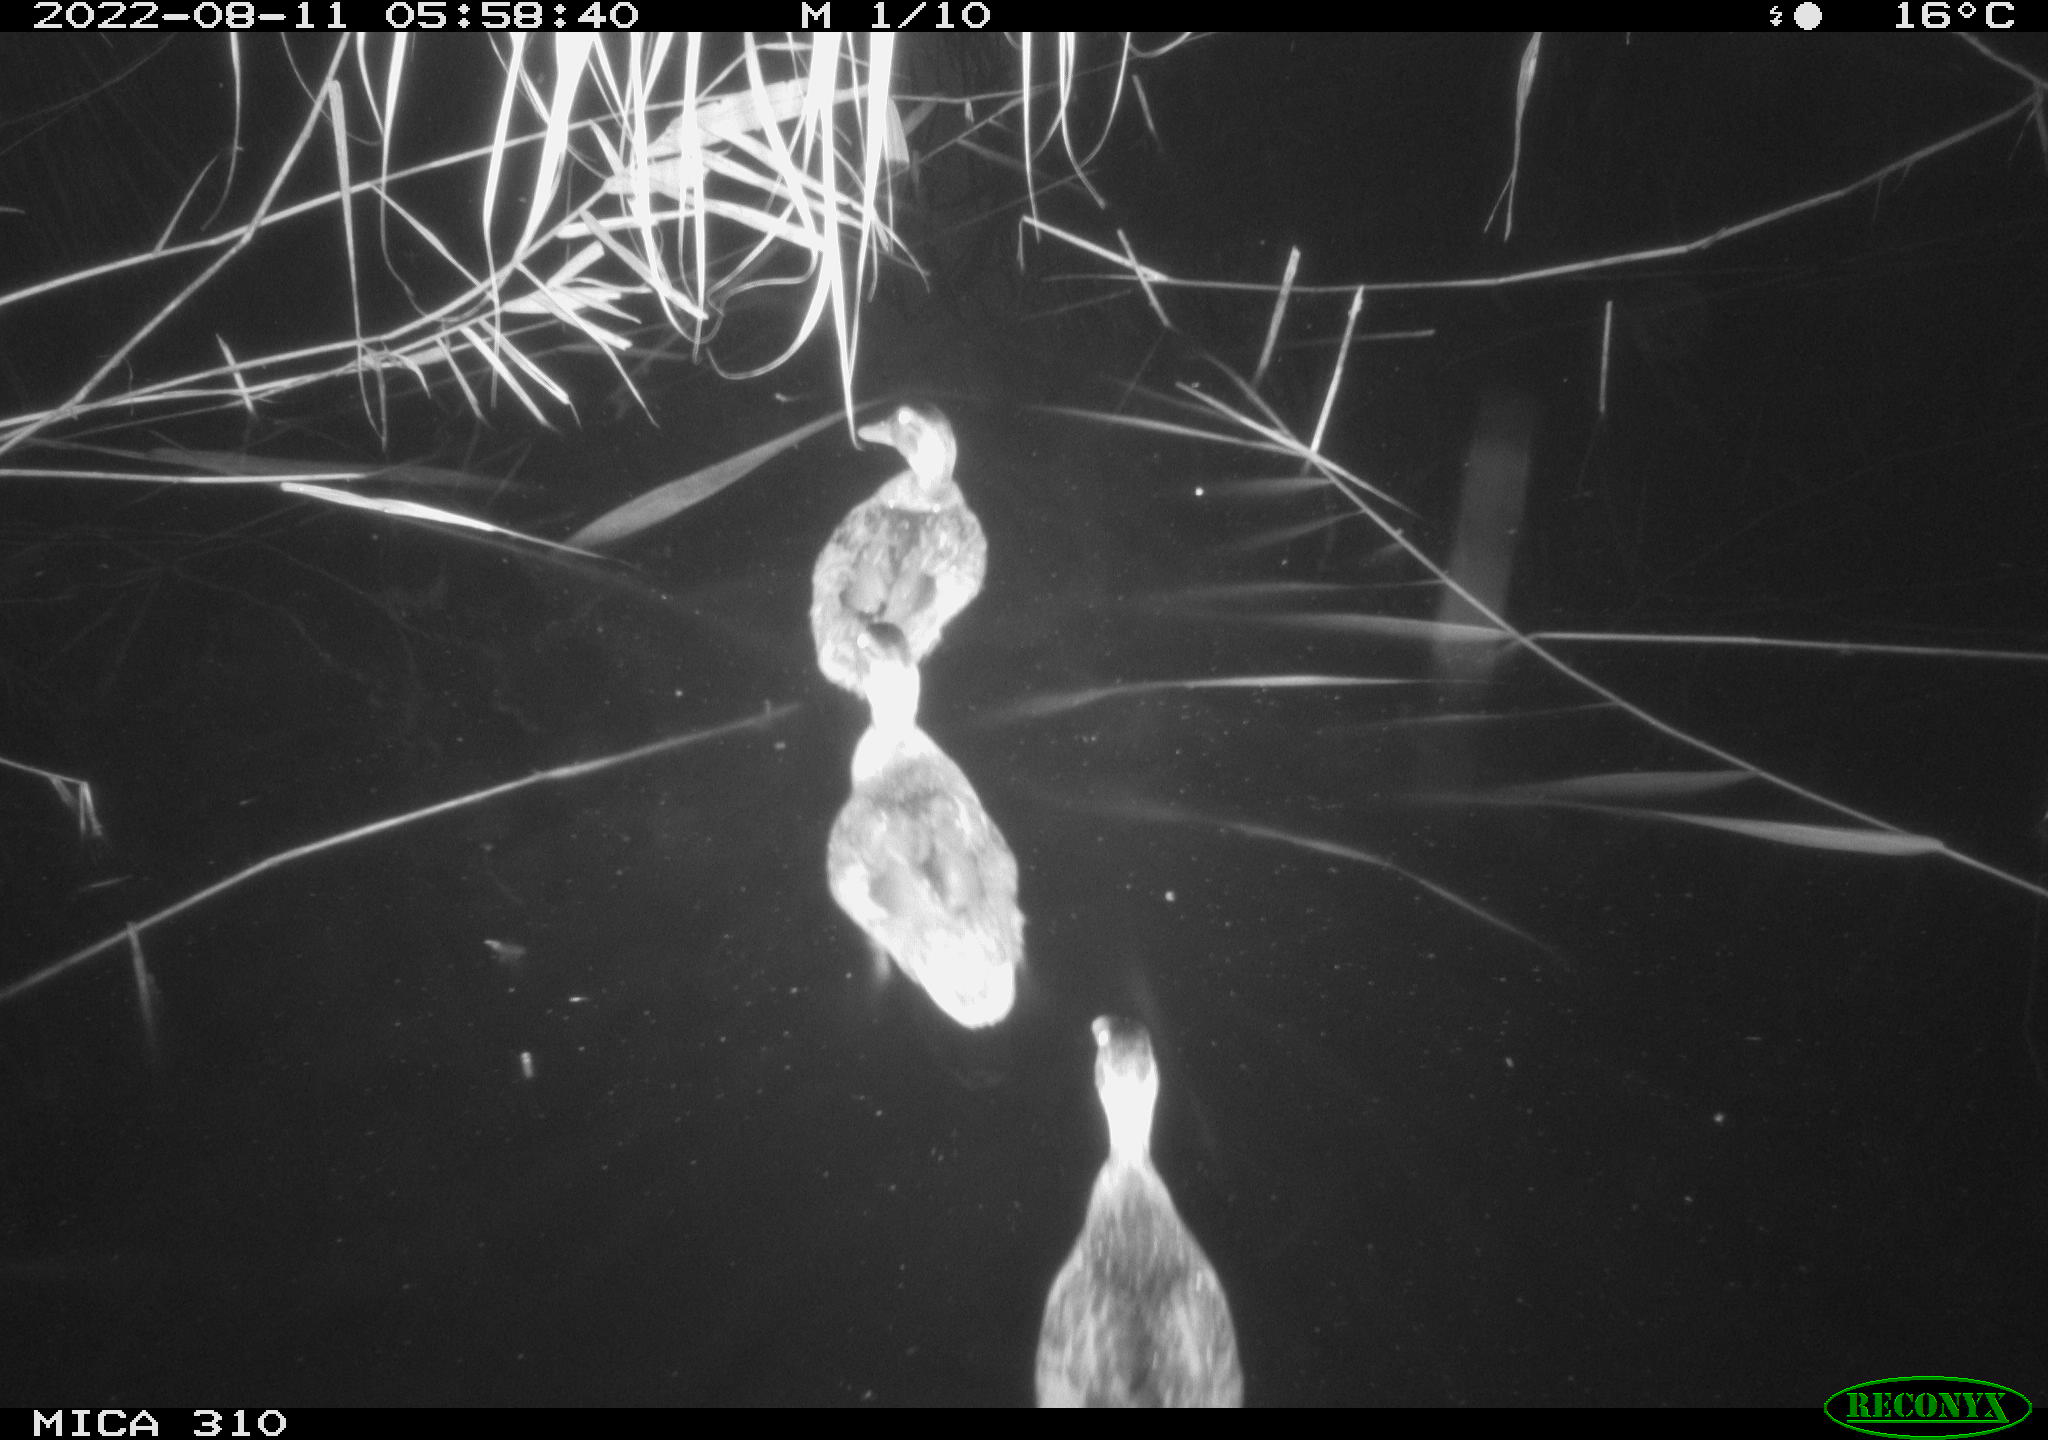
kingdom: Animalia
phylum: Chordata
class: Aves
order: Anseriformes
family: Anatidae
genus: Anas
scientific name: Anas platyrhynchos
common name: Mallard
